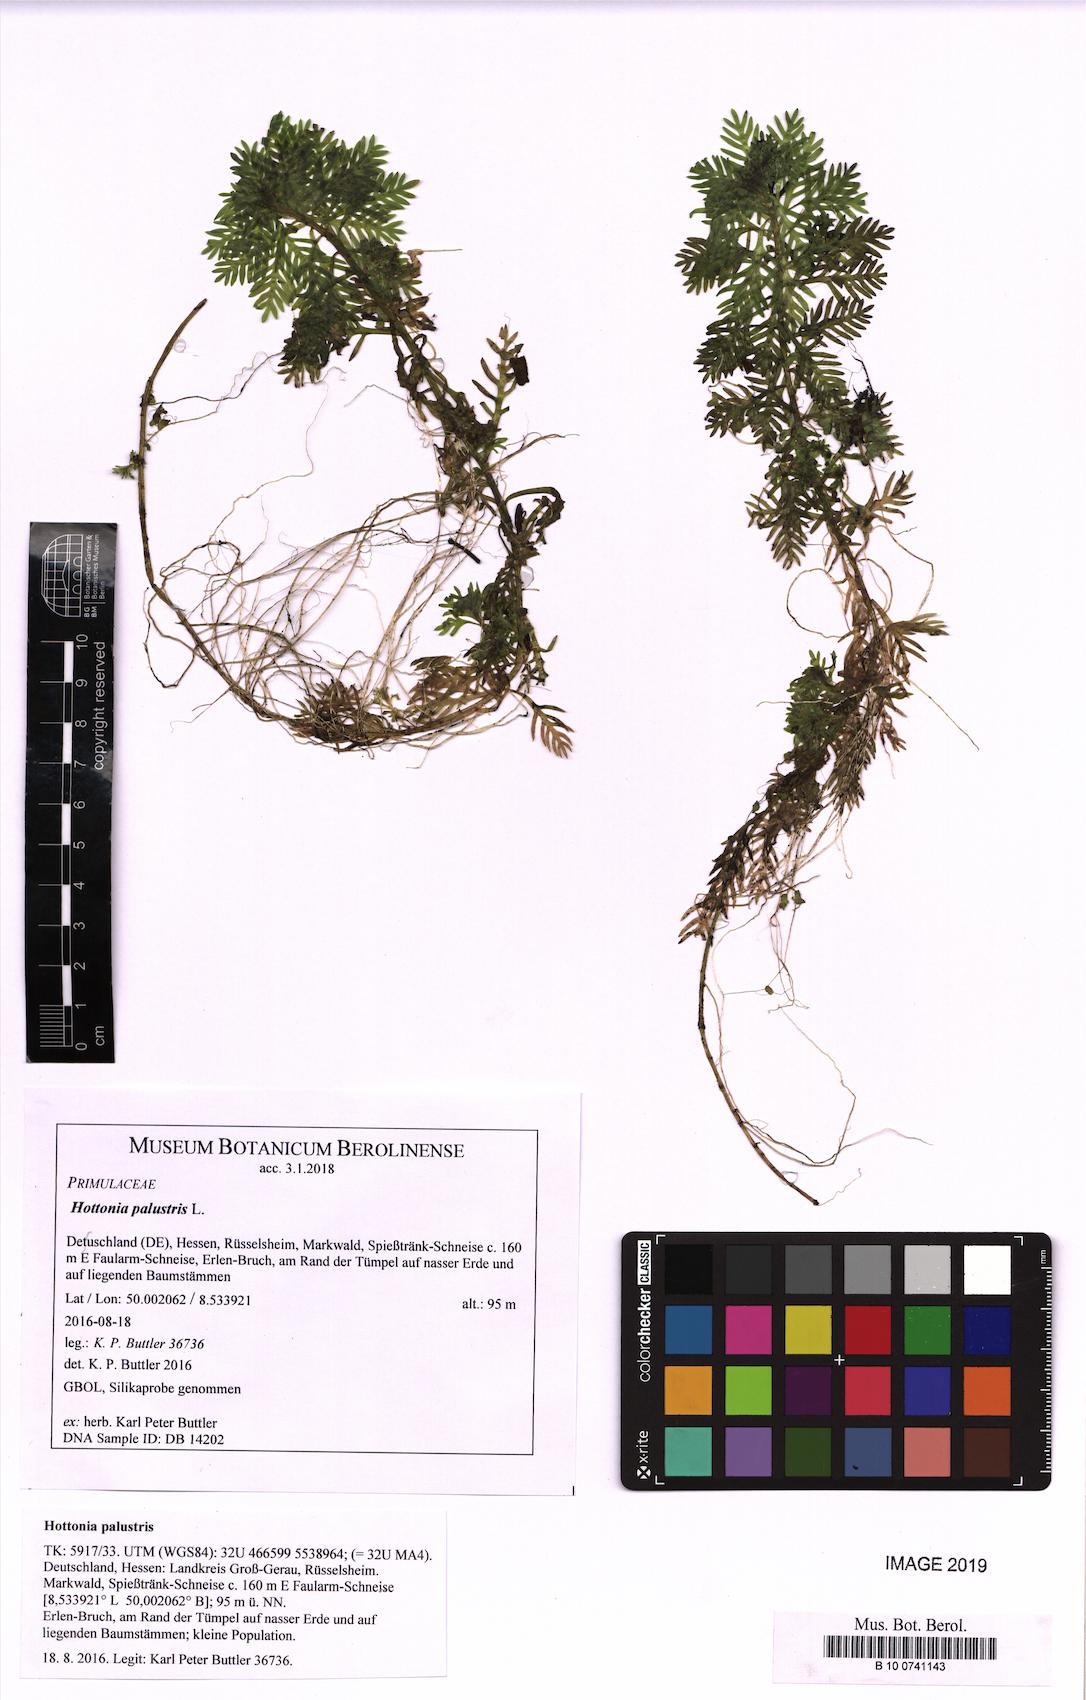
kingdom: Plantae
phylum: Tracheophyta
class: Magnoliopsida
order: Ericales
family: Primulaceae
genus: Hottonia
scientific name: Hottonia palustris
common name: Water-violet
